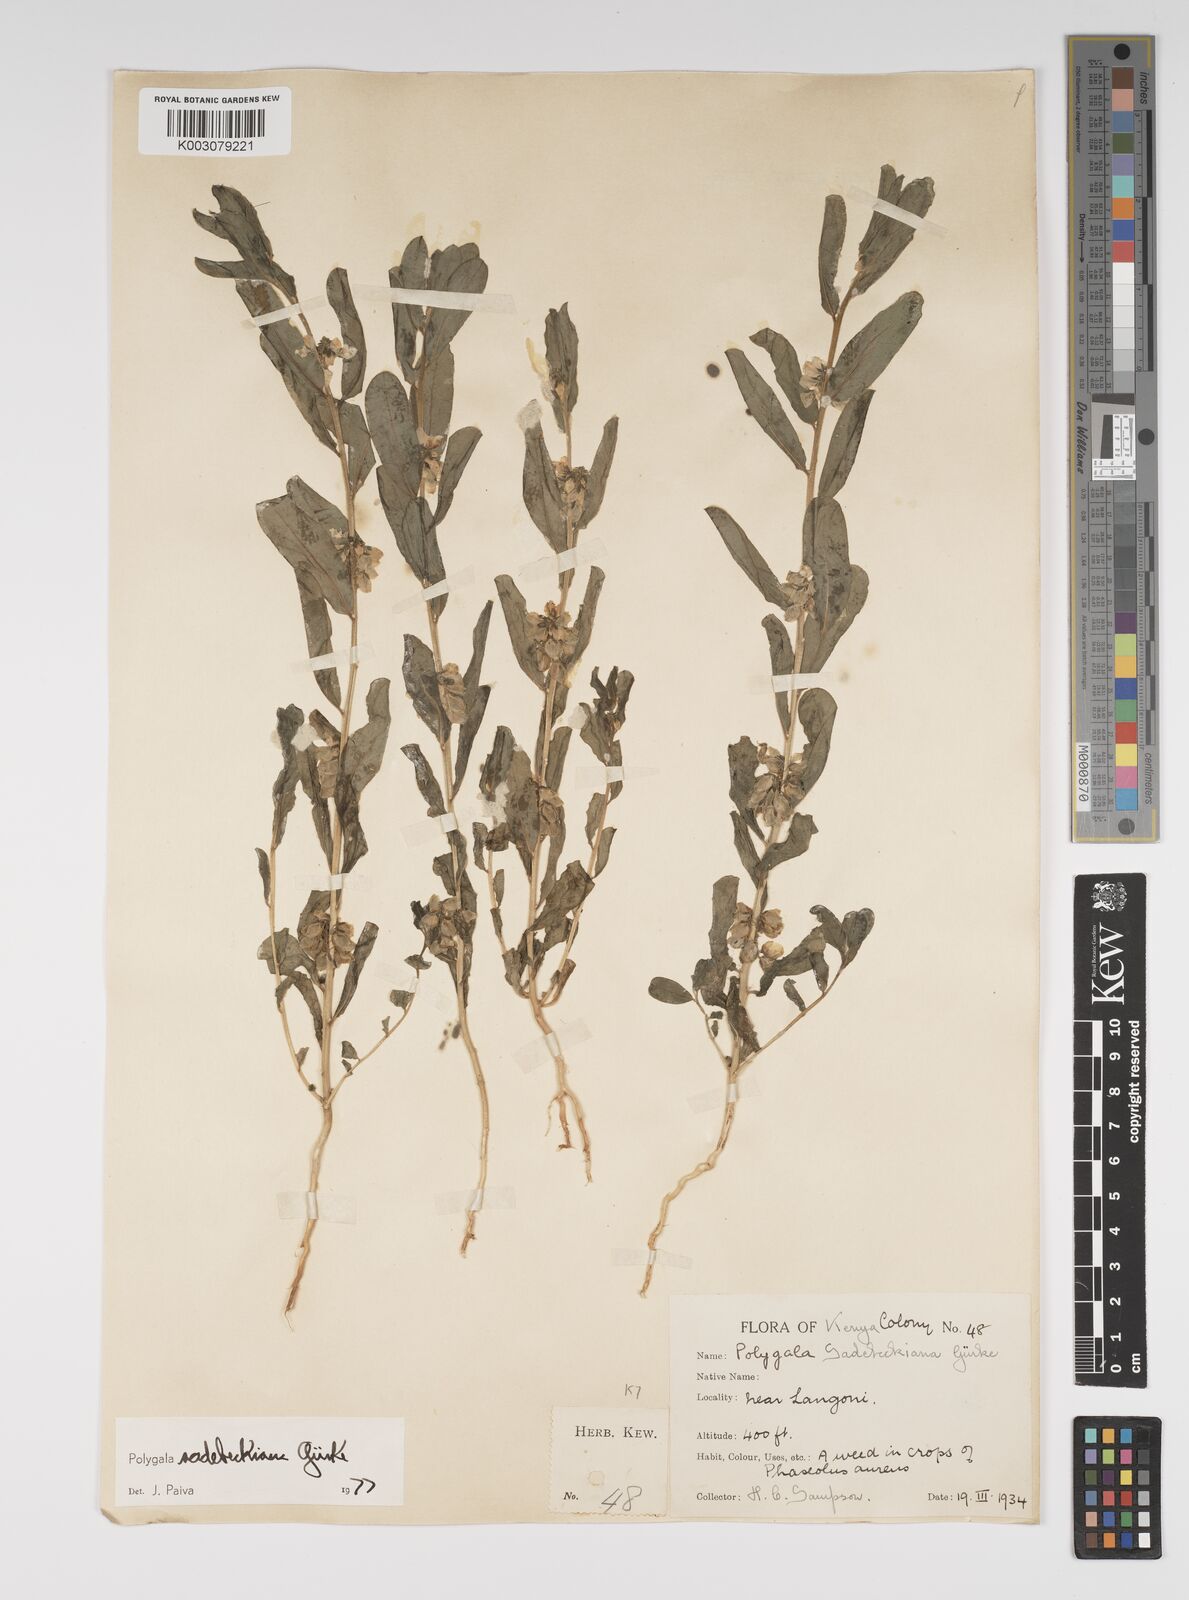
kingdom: Plantae
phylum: Tracheophyta
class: Magnoliopsida
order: Fabales
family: Polygalaceae
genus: Polygala
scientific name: Polygala sadebeckiana
